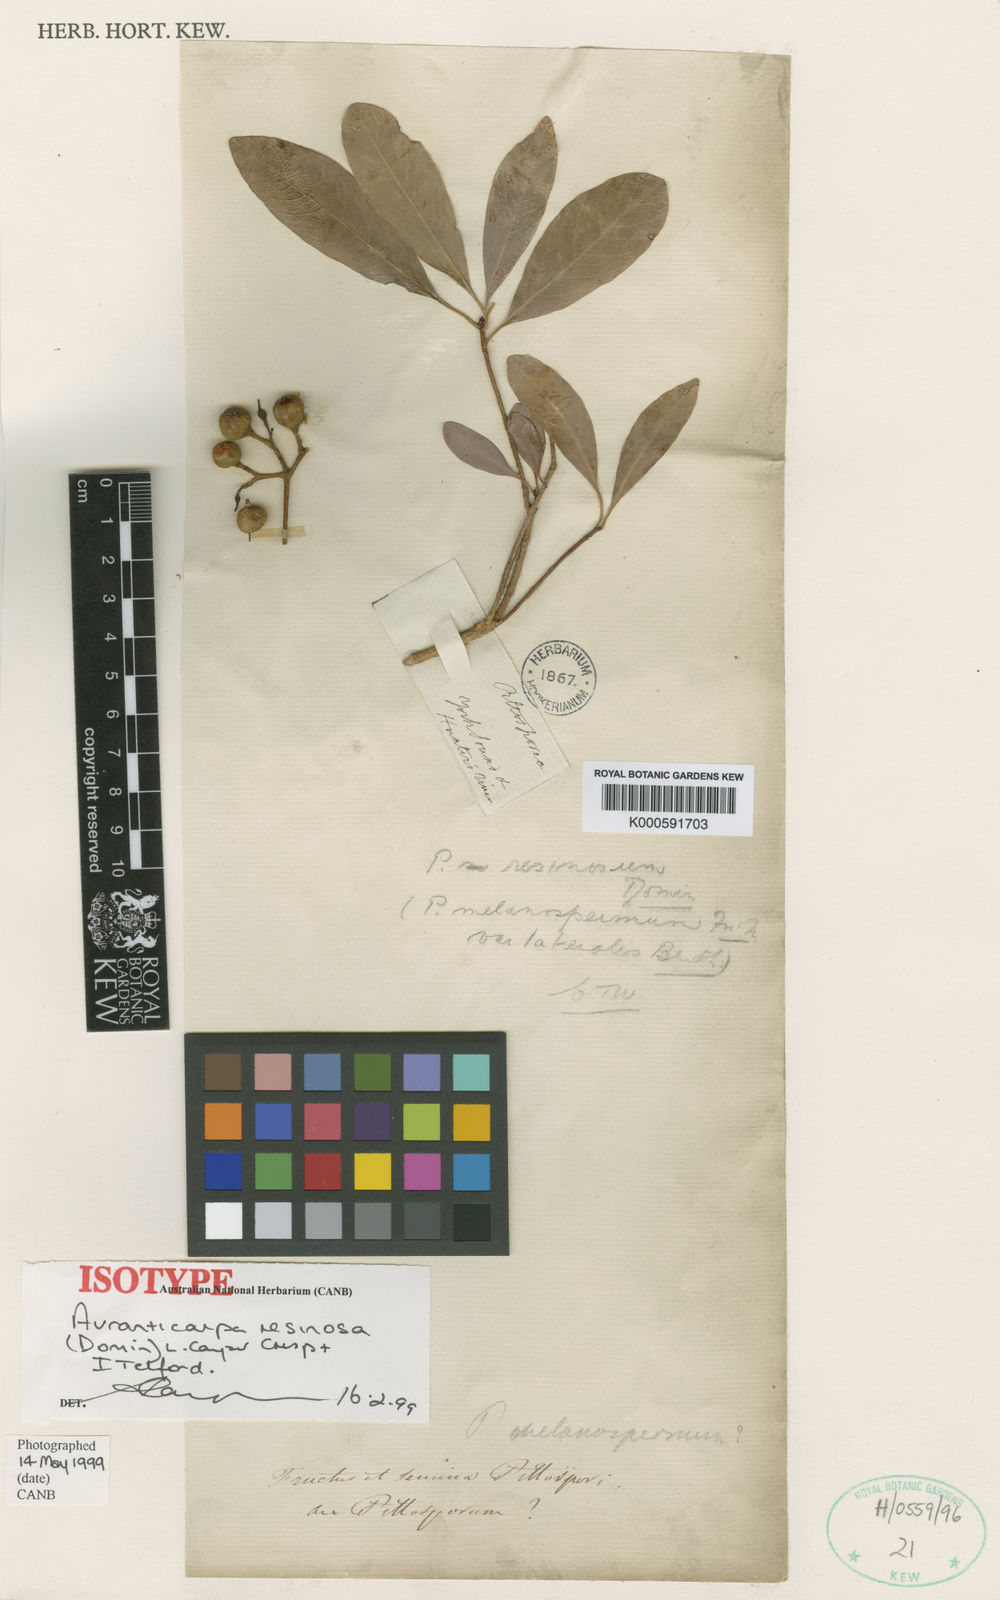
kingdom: Plantae
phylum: Tracheophyta
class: Magnoliopsida
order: Apiales
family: Pittosporaceae
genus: Auranticarpa
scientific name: Auranticarpa papyracea
